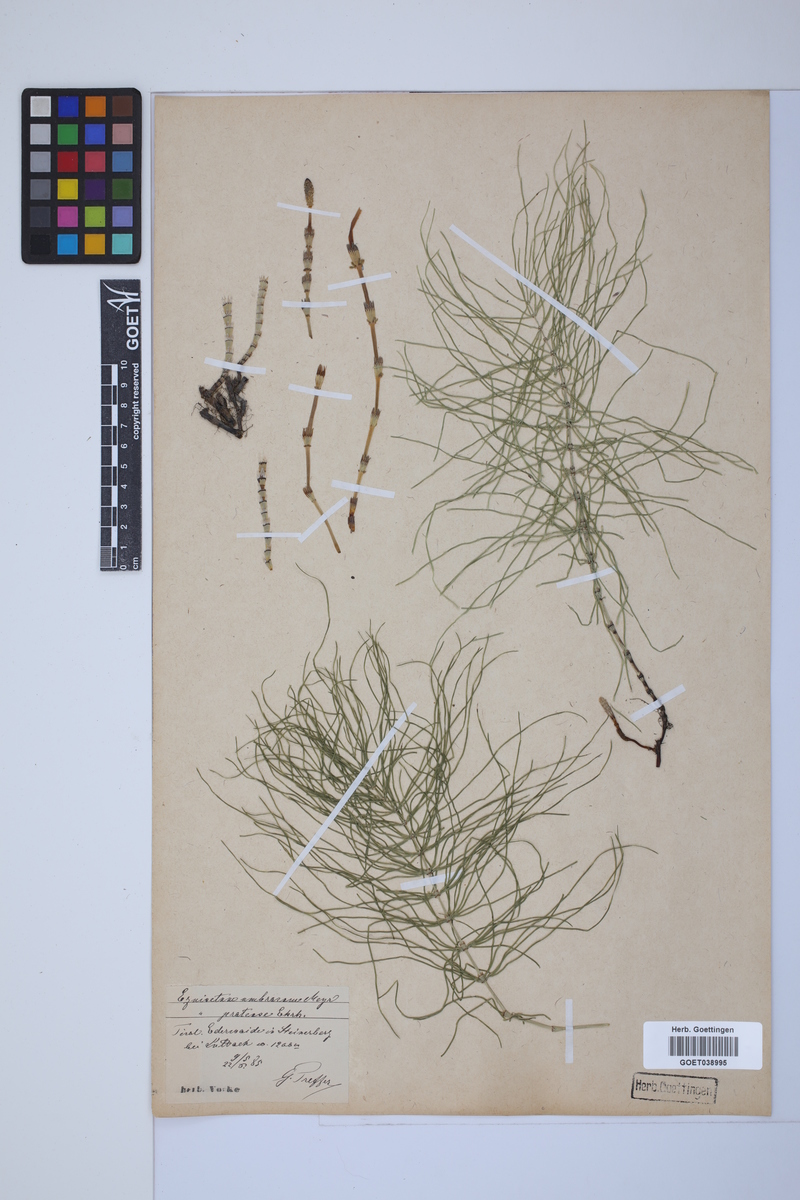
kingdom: Plantae
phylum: Tracheophyta
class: Polypodiopsida
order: Equisetales
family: Equisetaceae
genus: Equisetum
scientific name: Equisetum pratense
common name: Meadow horsetail
